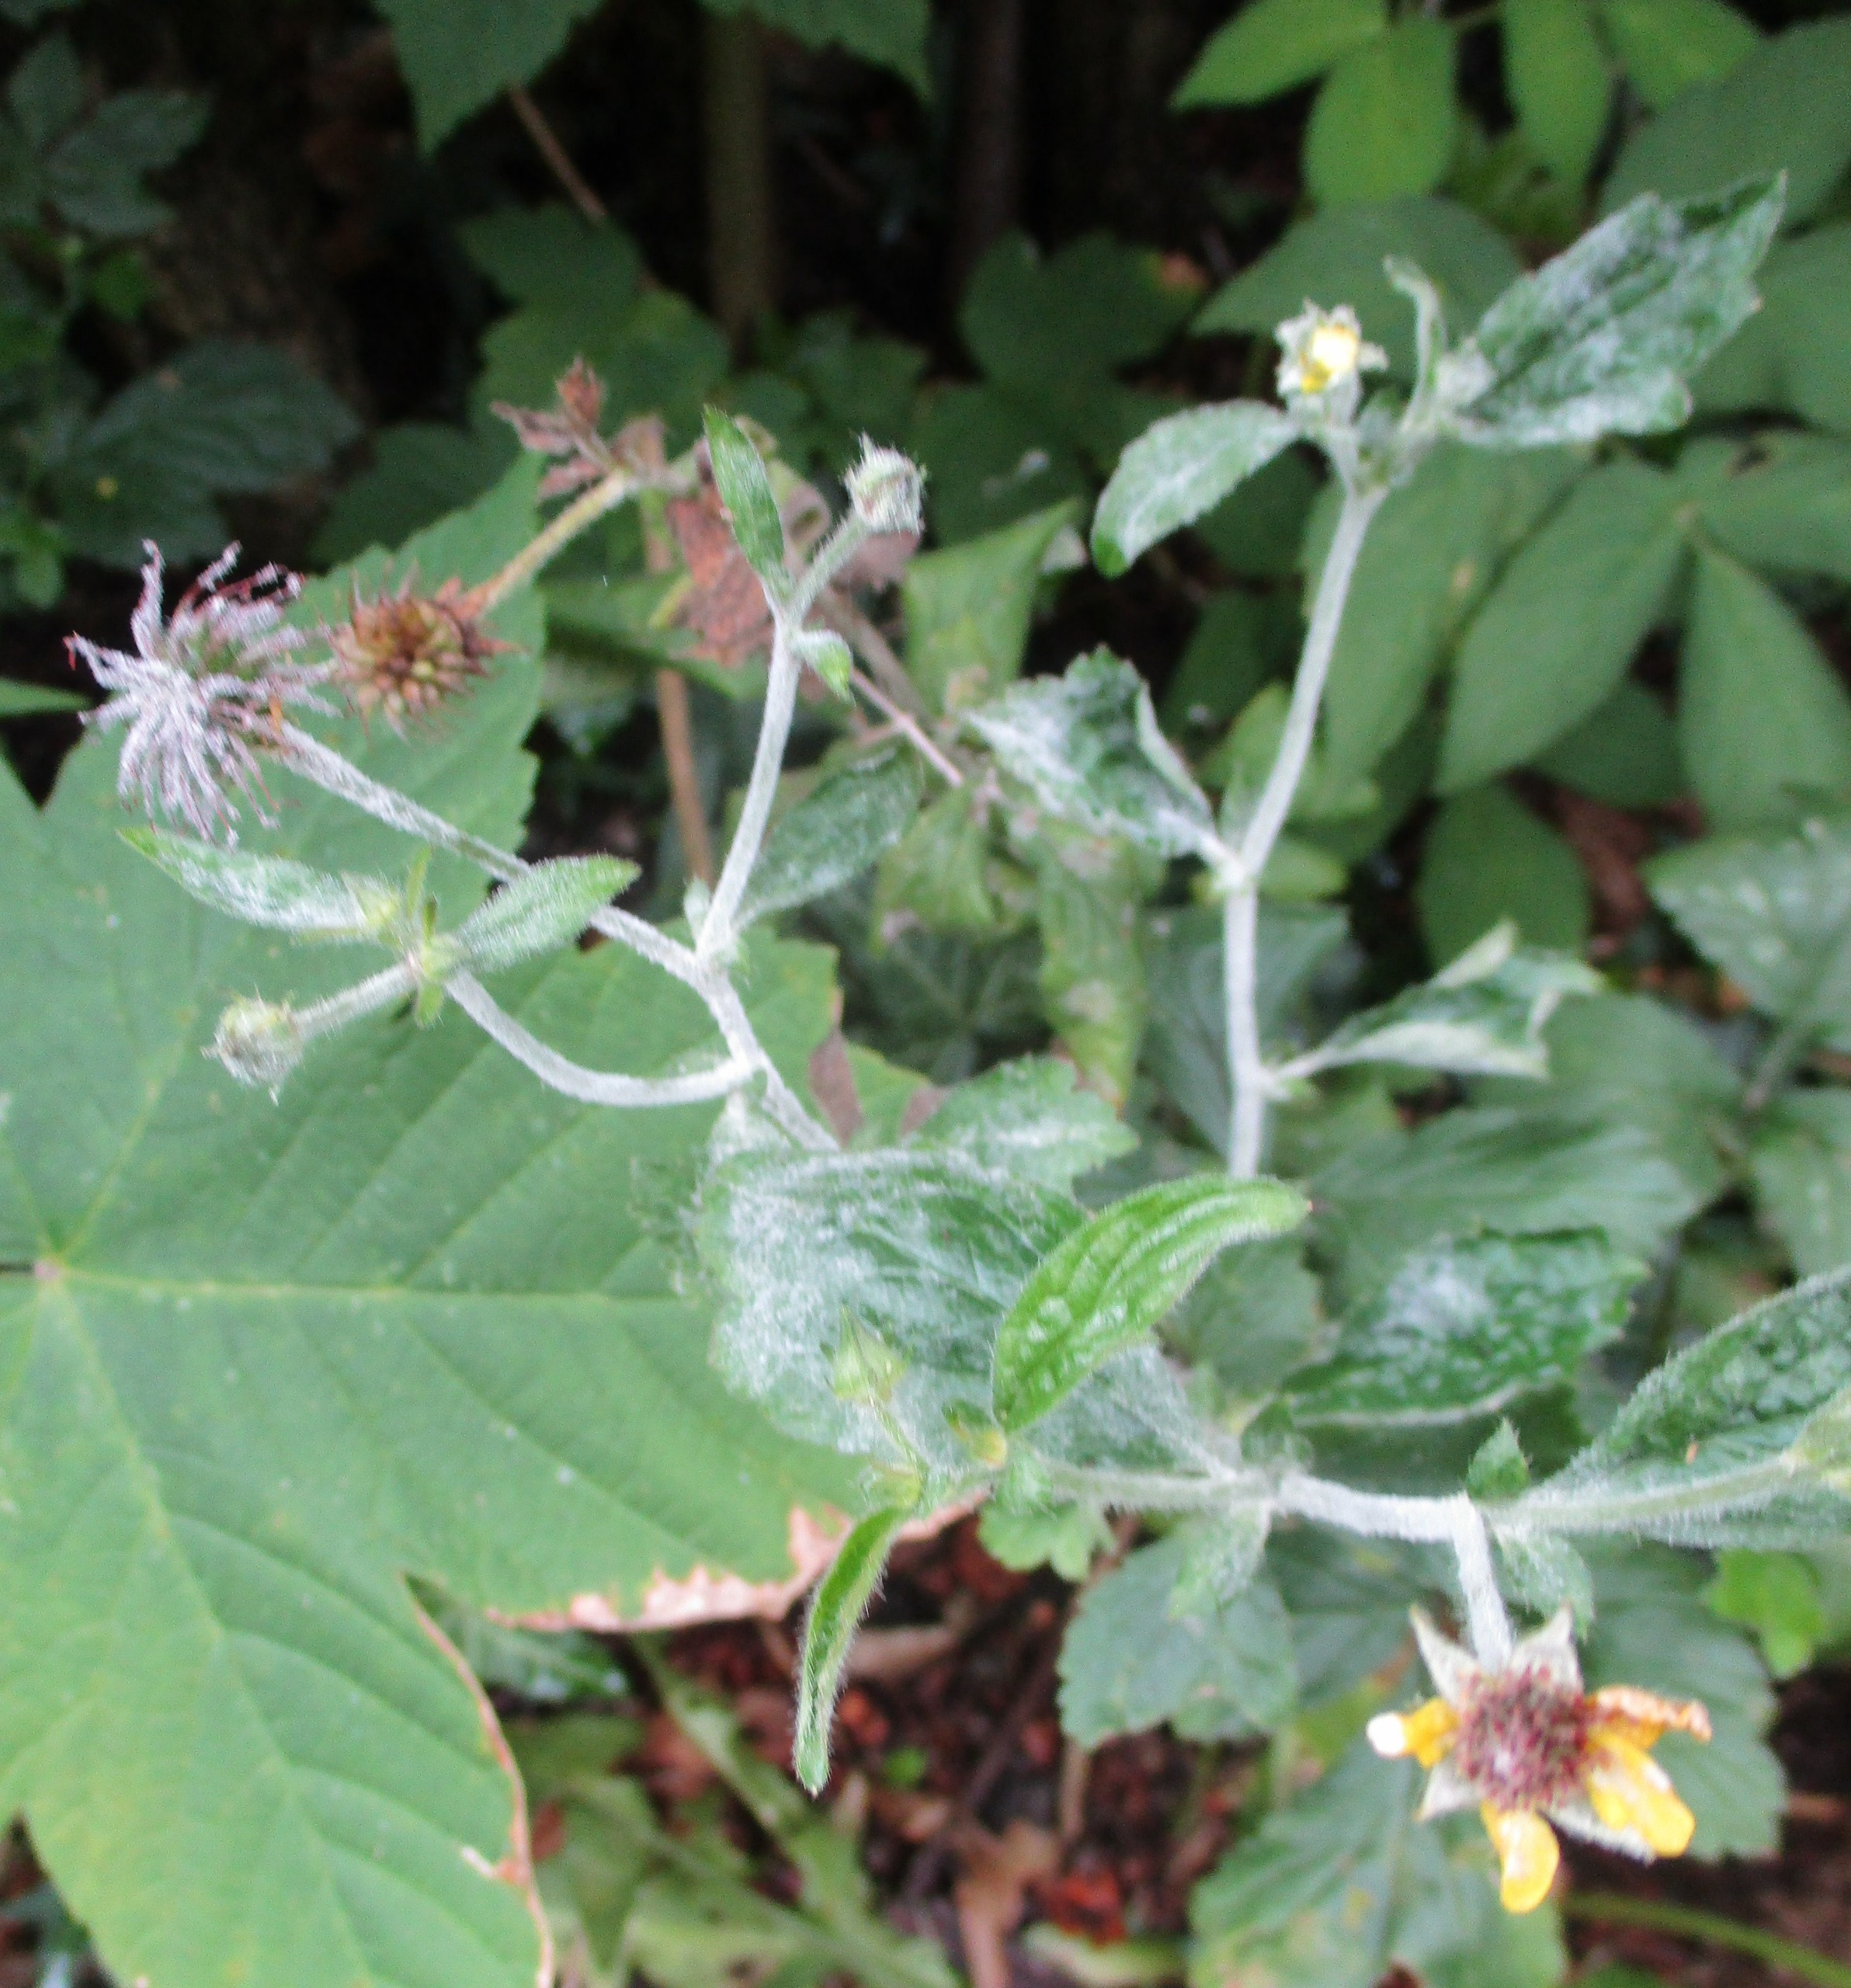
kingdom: Plantae
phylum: Tracheophyta
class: Magnoliopsida
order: Rosales
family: Rosaceae
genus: Geum
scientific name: Geum urbanum
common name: Feber-nellikerod
